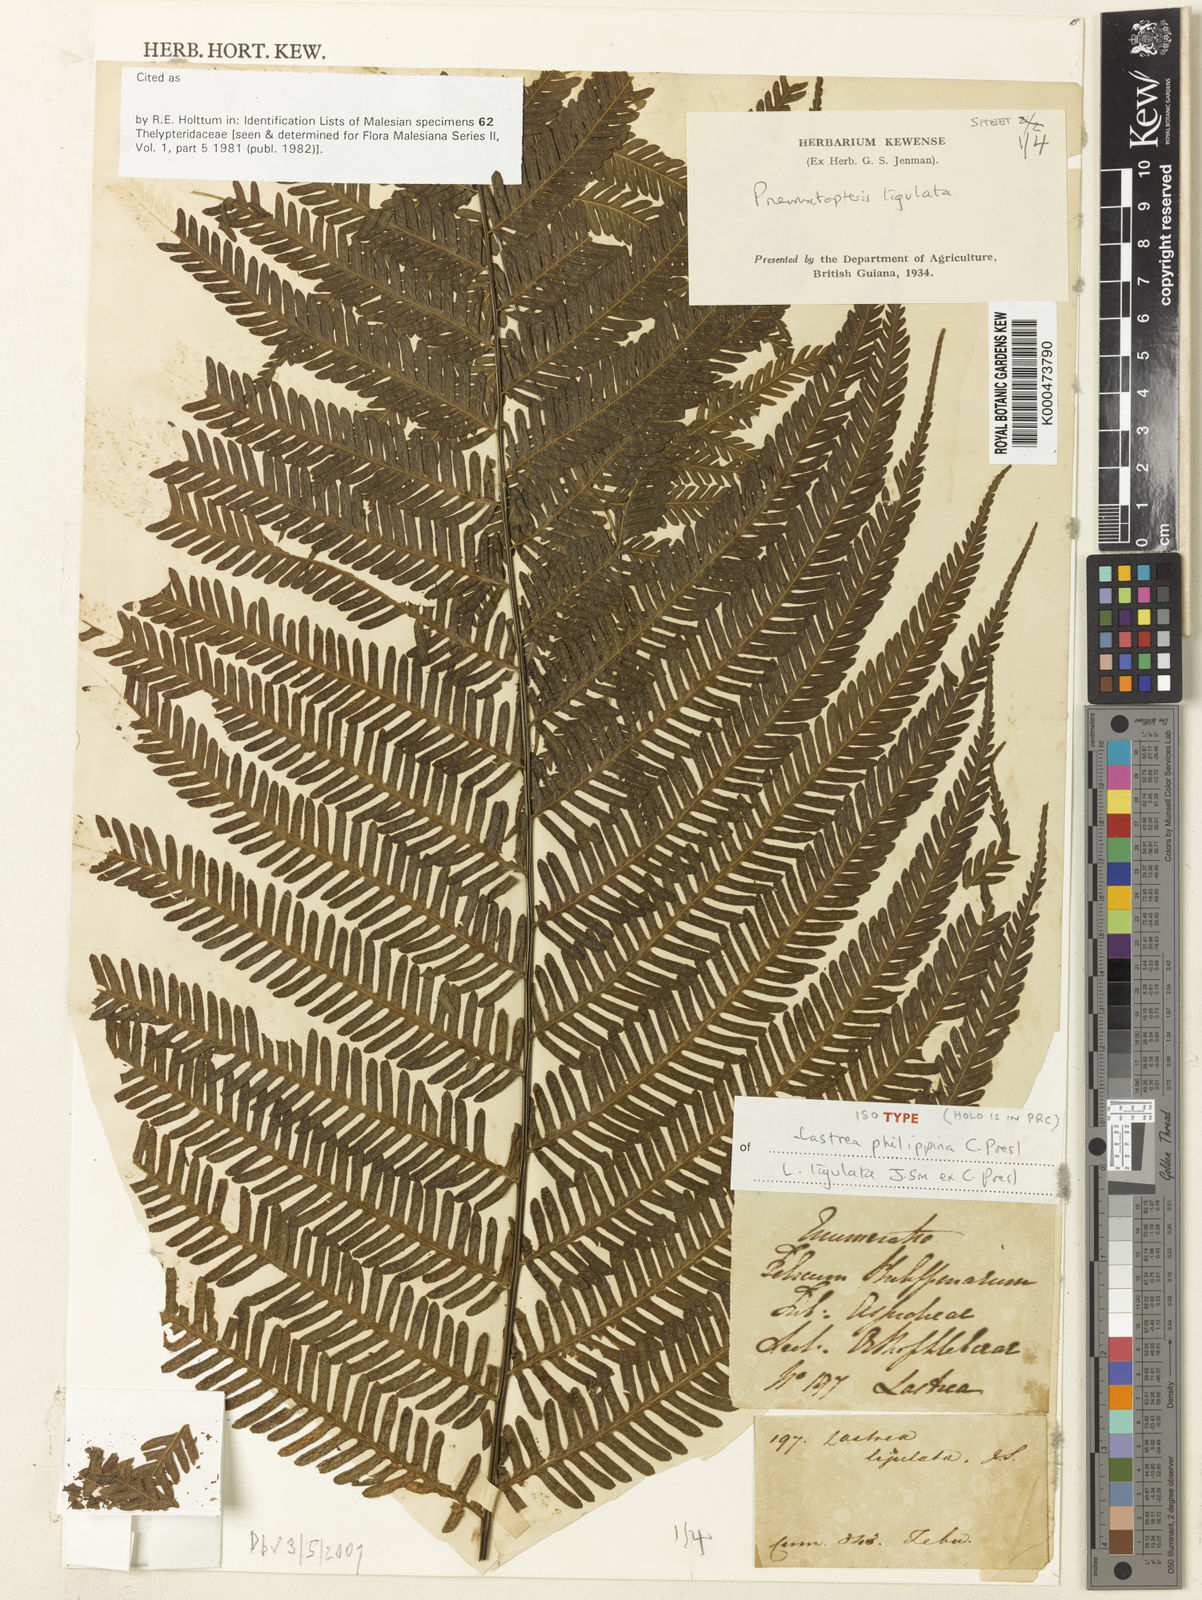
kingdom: Plantae
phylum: Tracheophyta
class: Polypodiopsida
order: Polypodiales
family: Thelypteridaceae
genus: Plesioneuron
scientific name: Plesioneuron ligulatum
